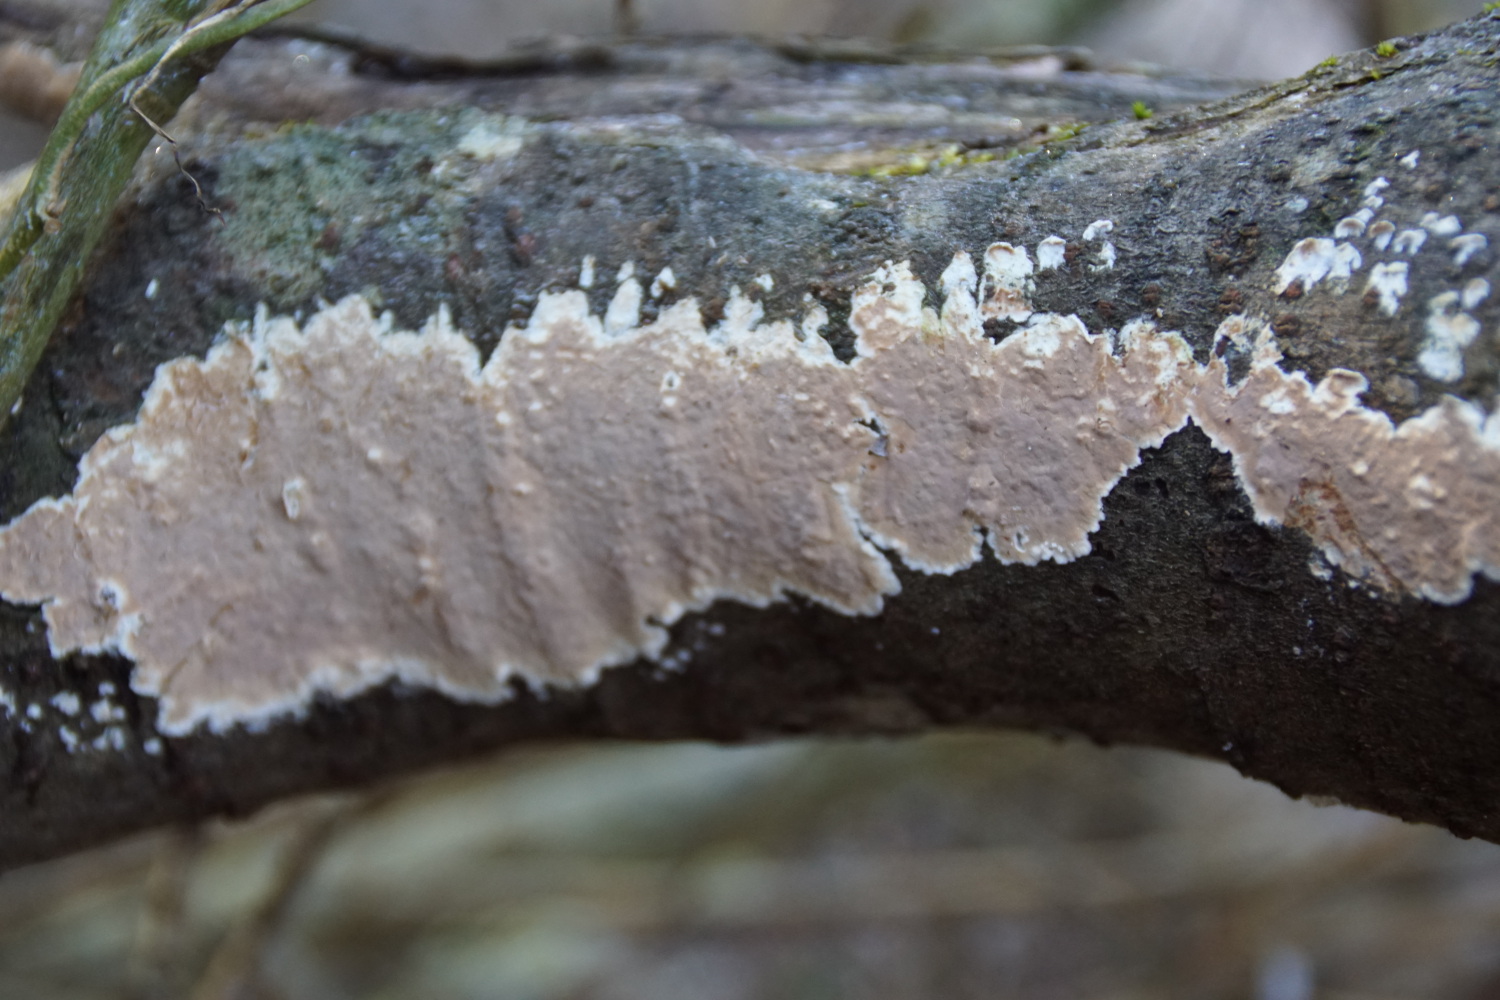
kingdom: Fungi
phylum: Basidiomycota
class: Agaricomycetes
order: Agaricales
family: Physalacriaceae
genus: Cylindrobasidium
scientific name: Cylindrobasidium evolvens
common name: sprækkehinde
